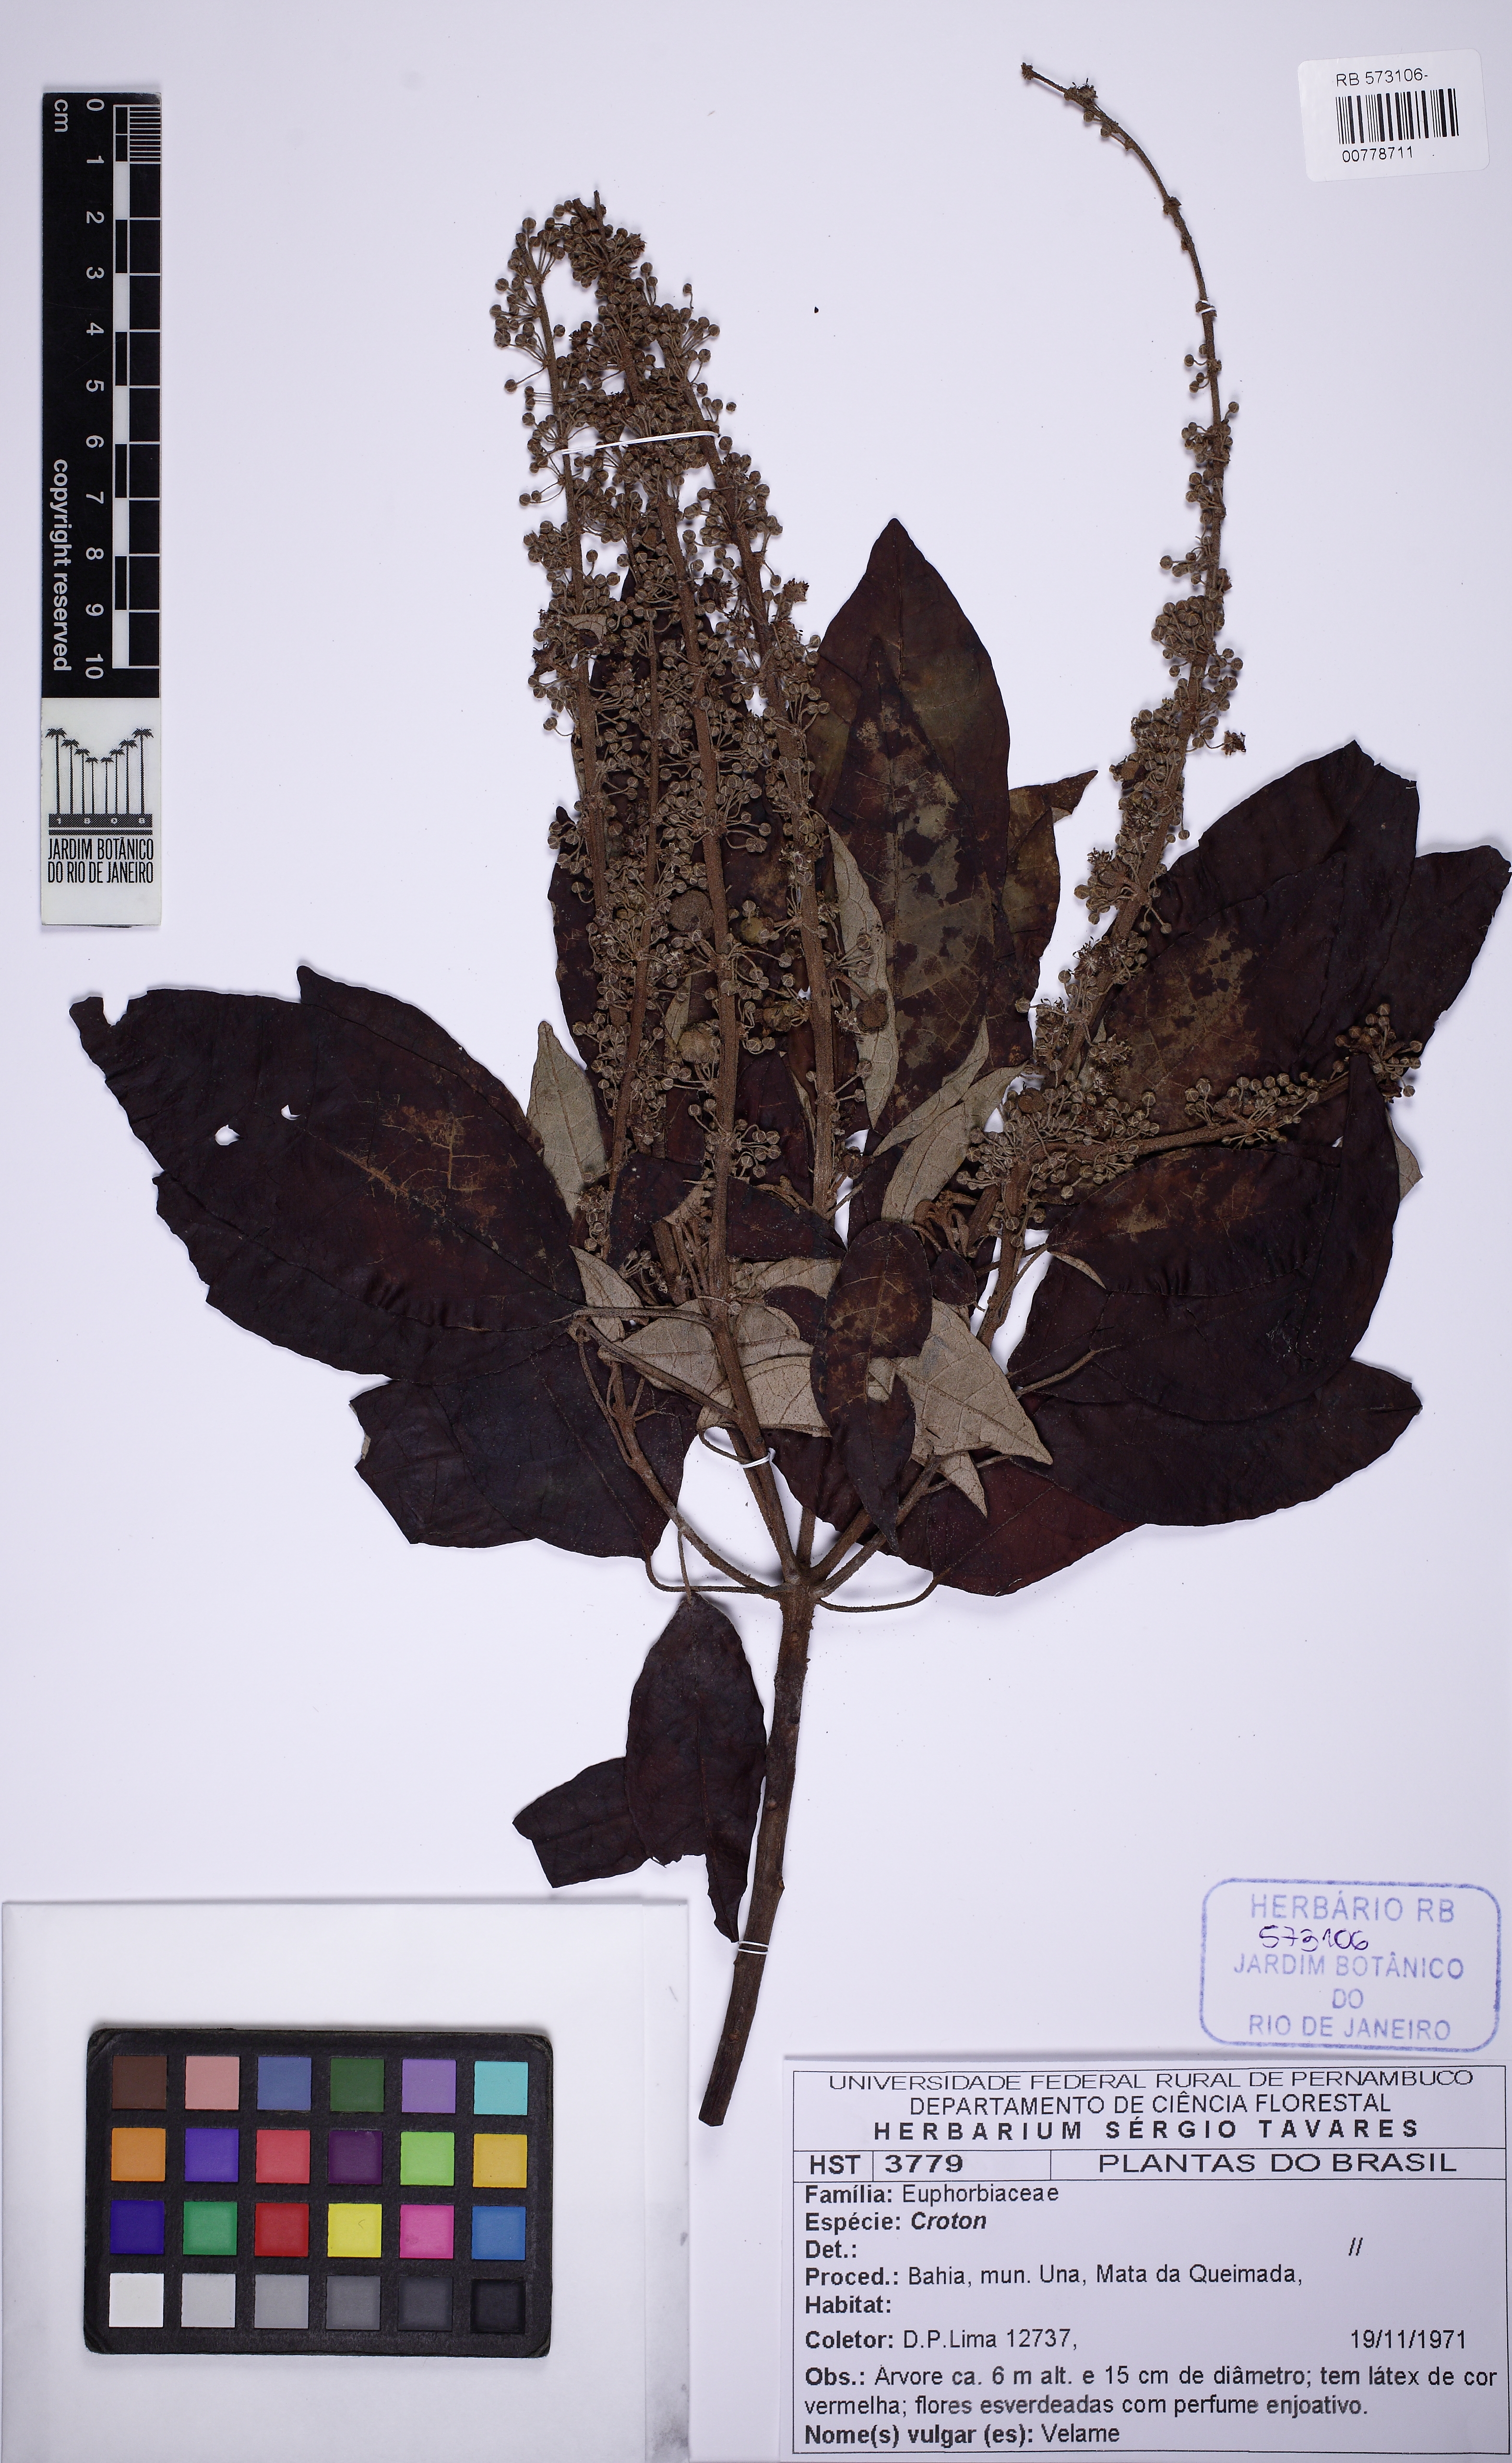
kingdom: Plantae
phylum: Tracheophyta
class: Magnoliopsida
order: Malpighiales
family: Euphorbiaceae
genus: Croton
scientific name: Croton macrobothrys
